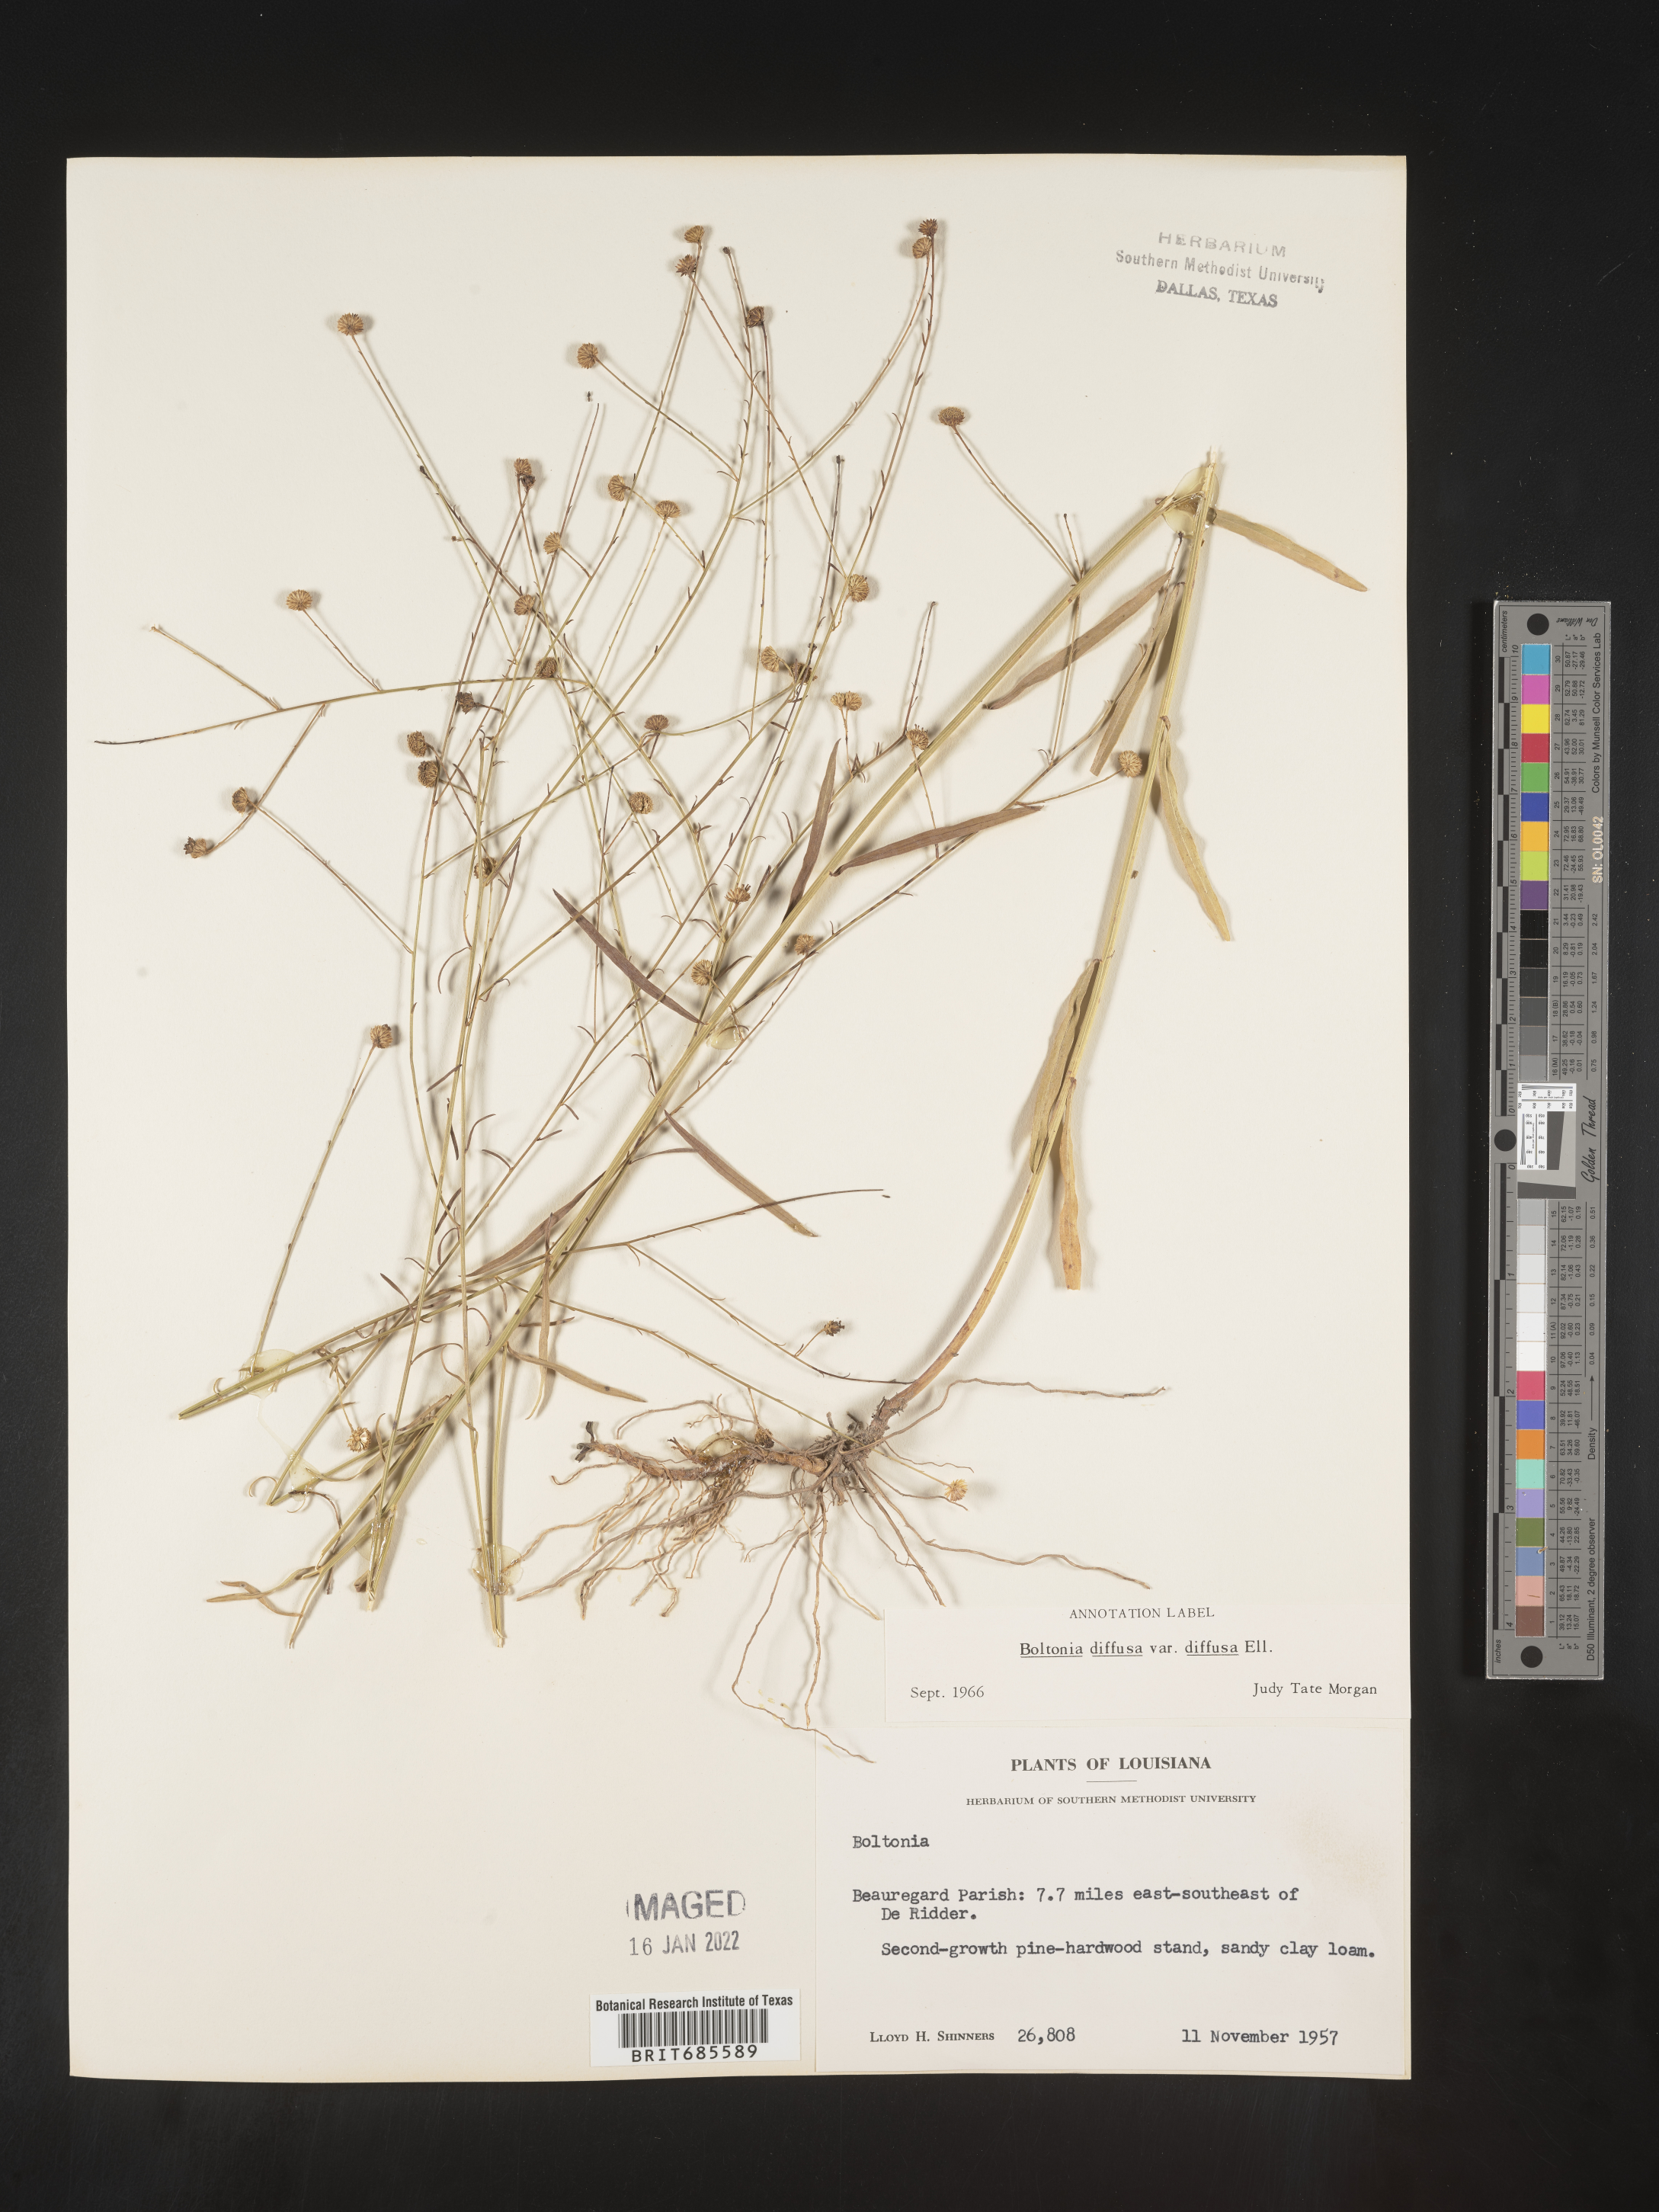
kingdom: Plantae
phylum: Tracheophyta
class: Magnoliopsida
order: Asterales
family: Asteraceae
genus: Boltonia
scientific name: Boltonia diffusa
